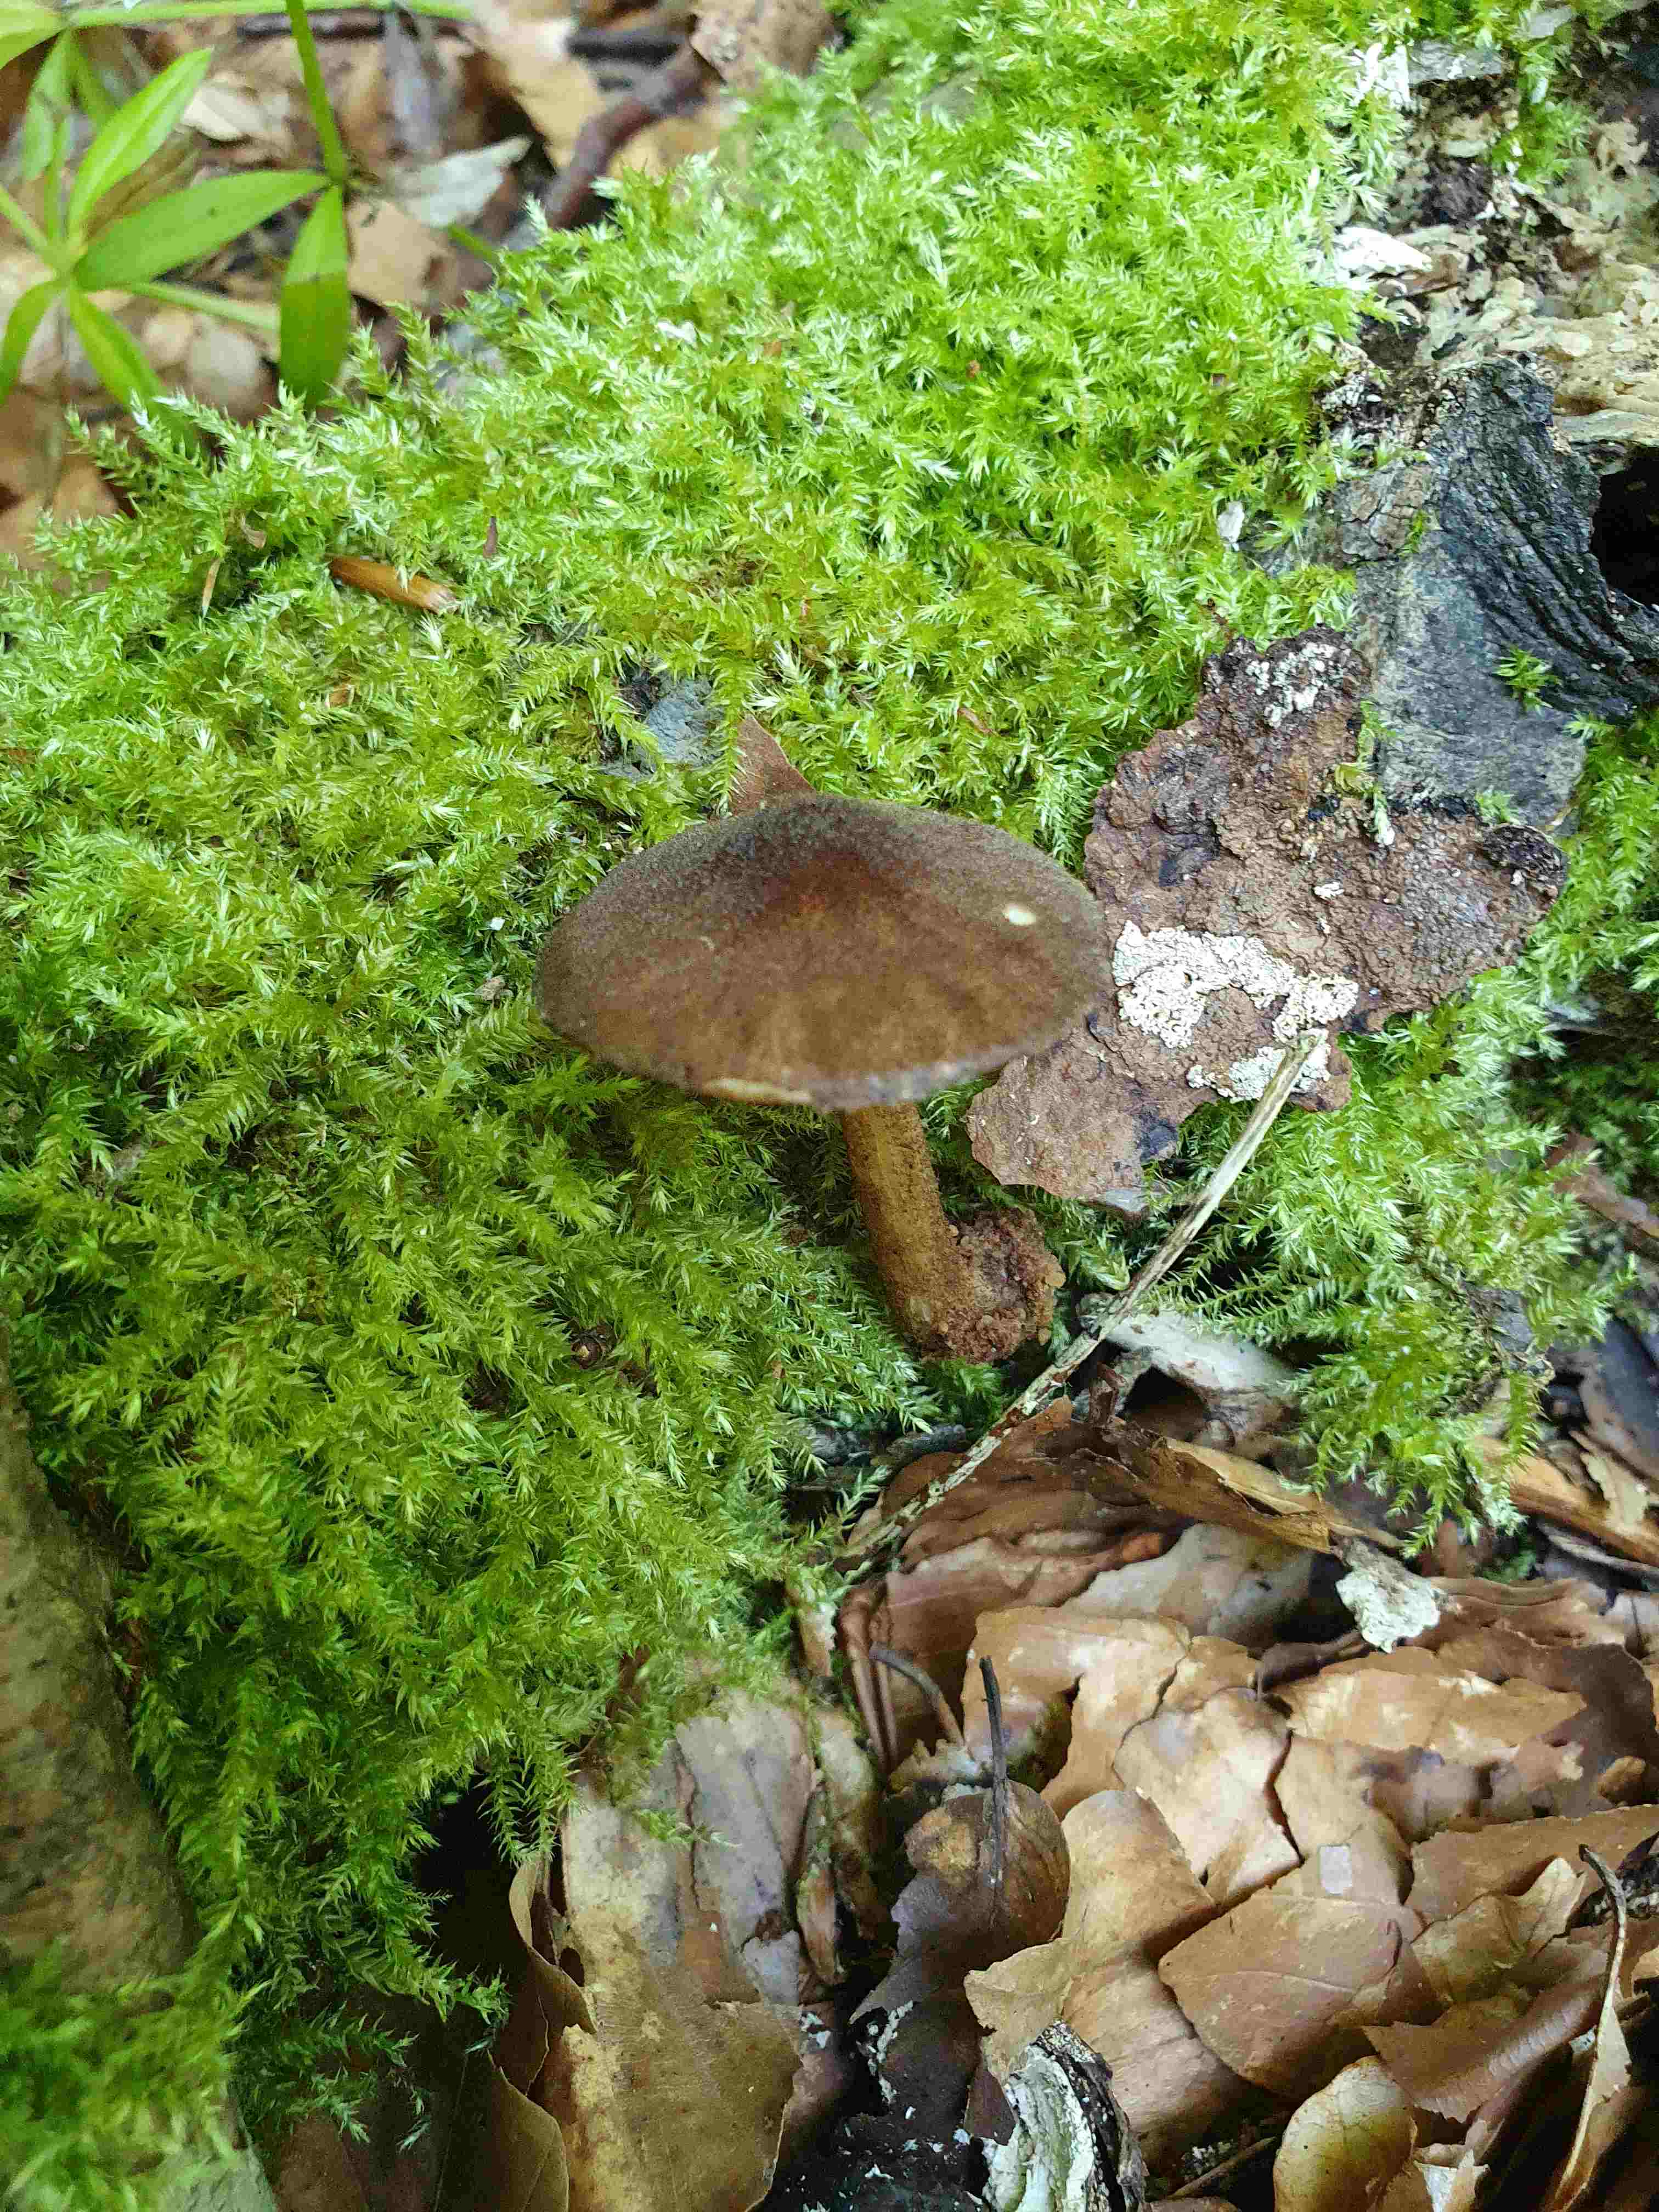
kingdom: Fungi
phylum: Basidiomycota
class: Agaricomycetes
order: Agaricales
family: Pluteaceae
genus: Pluteus
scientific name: Pluteus umbrosus
